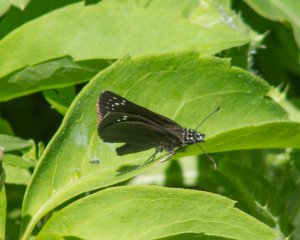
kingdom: Animalia
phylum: Arthropoda
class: Insecta
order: Lepidoptera
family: Hesperiidae
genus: Pholisora
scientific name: Pholisora catullus
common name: Common Sootywing
